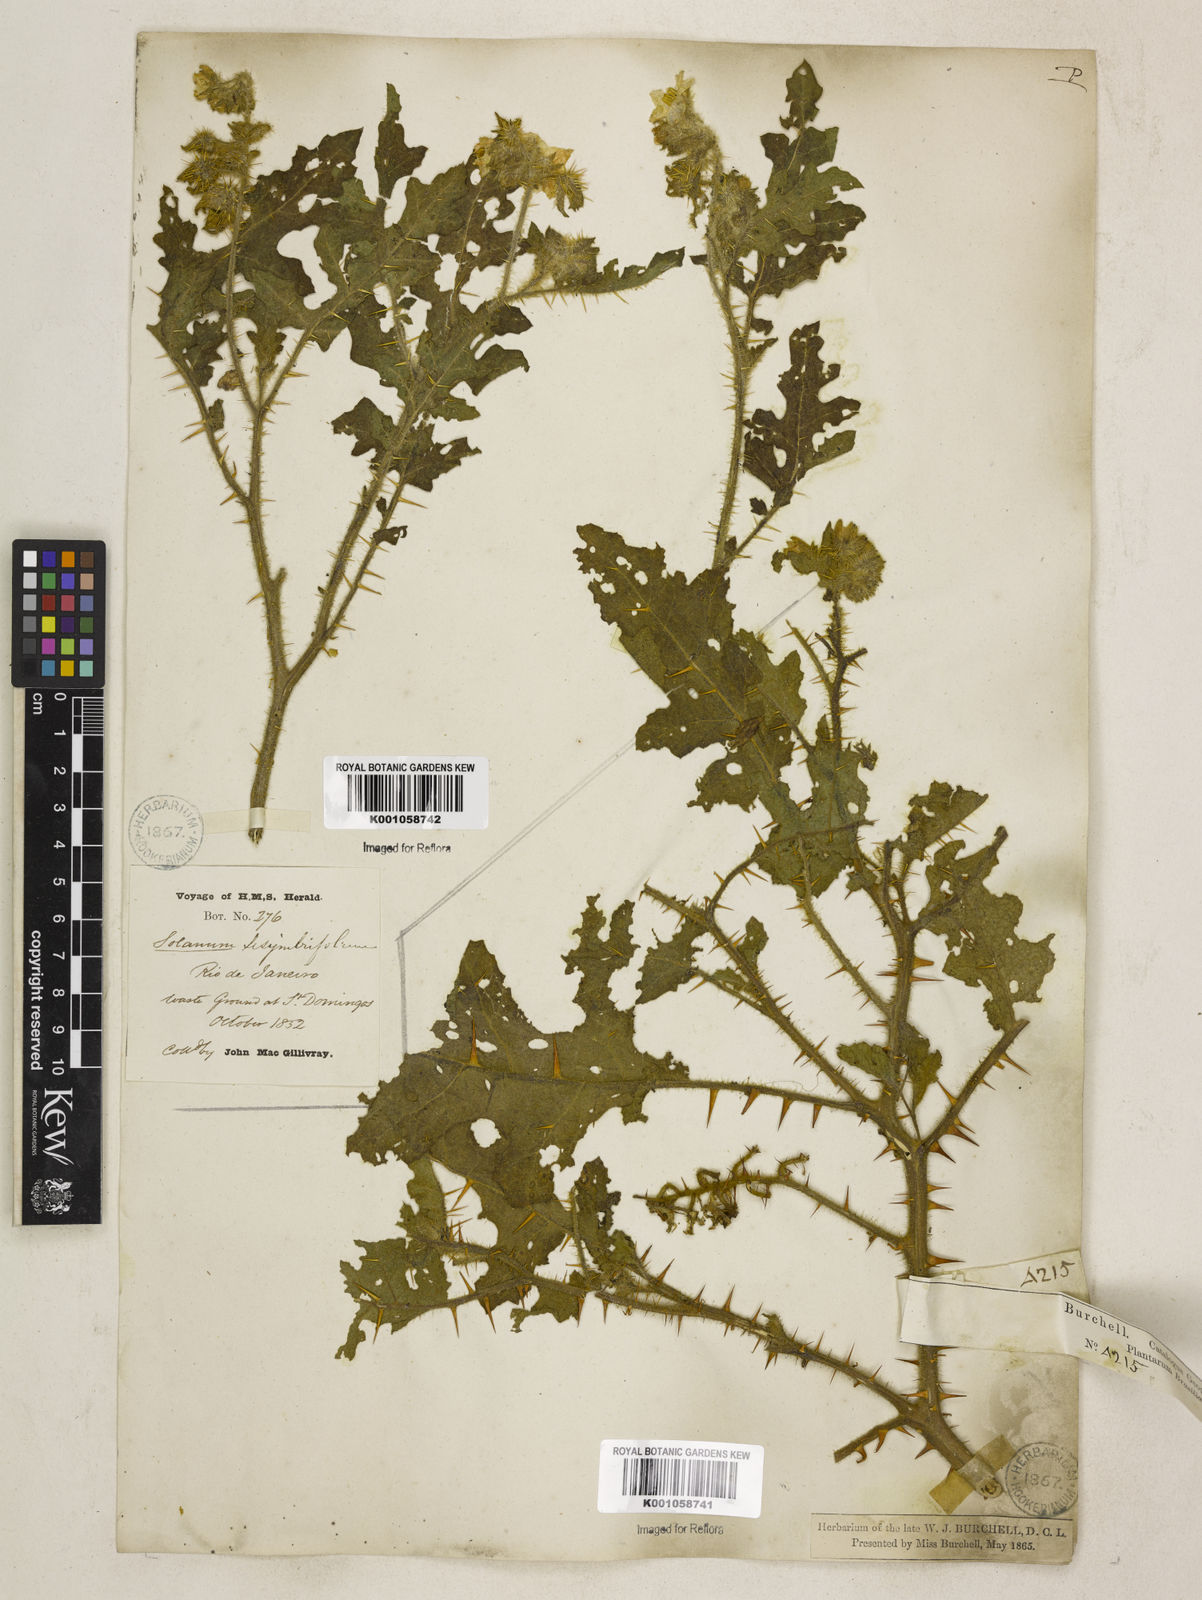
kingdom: Plantae
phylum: Tracheophyta
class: Magnoliopsida
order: Solanales
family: Solanaceae
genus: Solanum
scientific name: Solanum sisymbriifolium
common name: Red buffalo-bur
